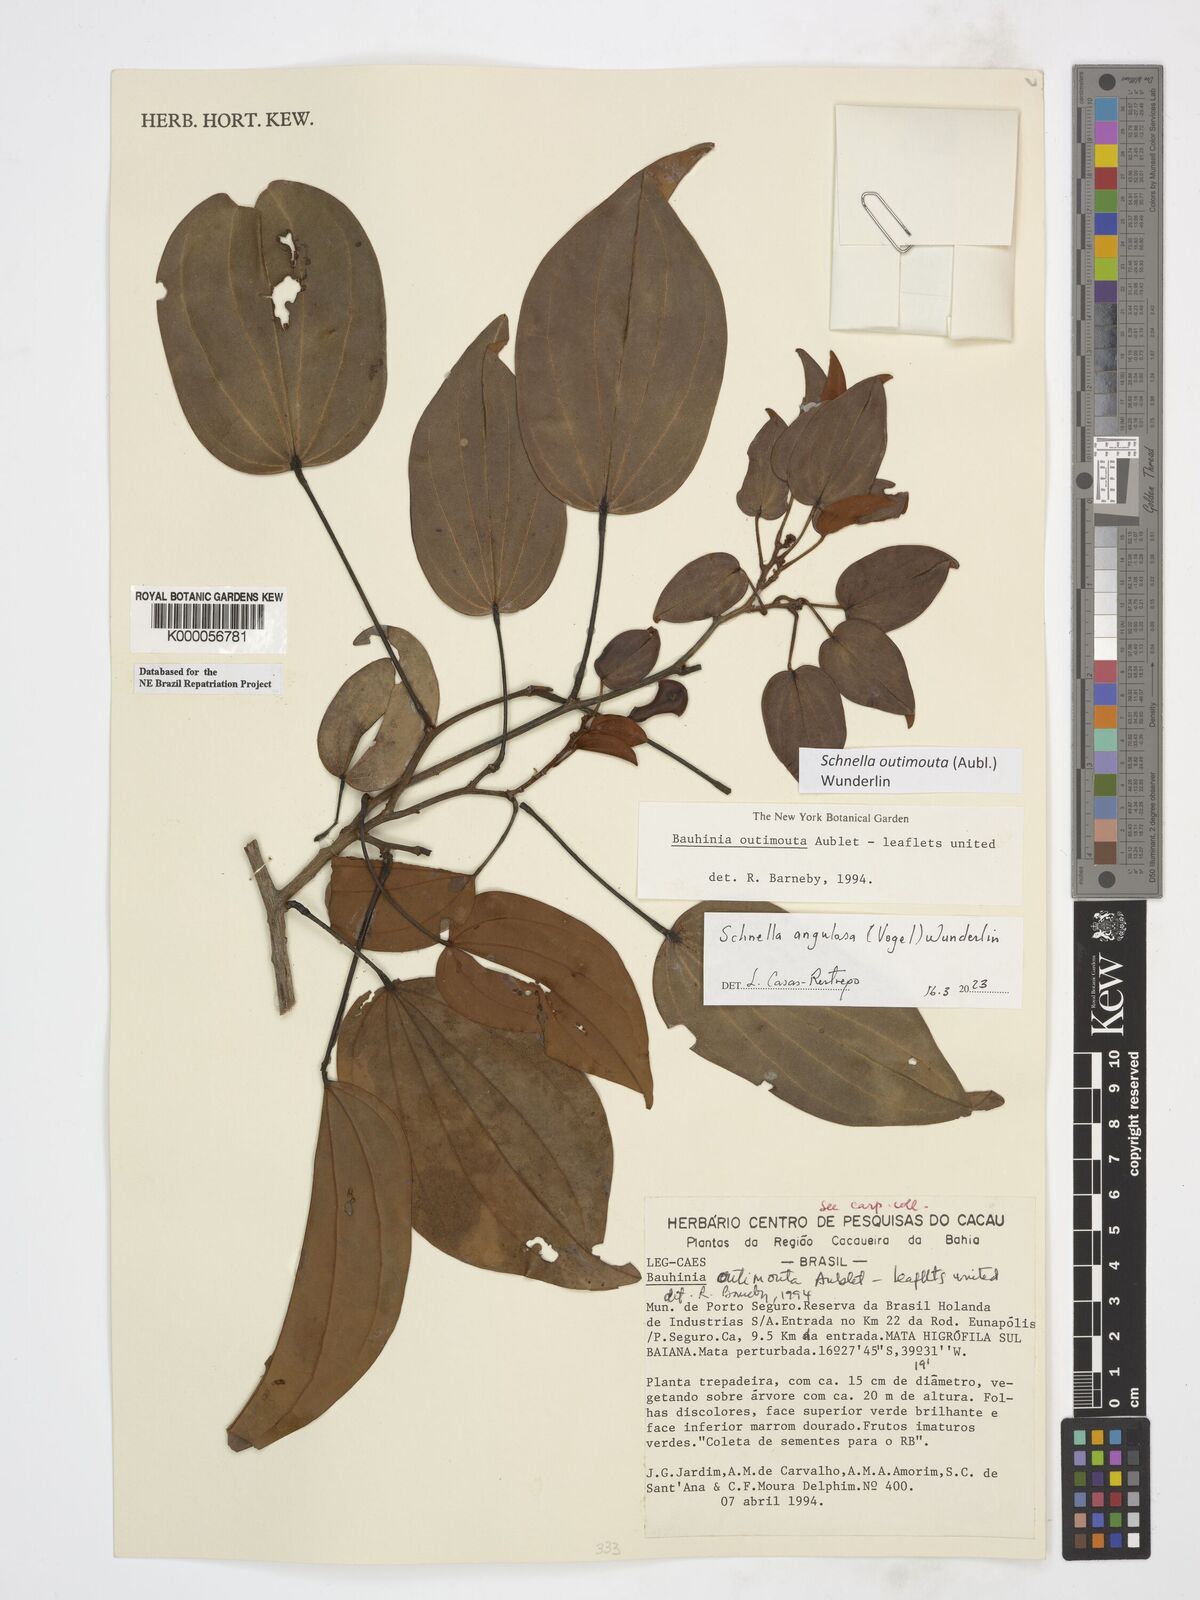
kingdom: Plantae
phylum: Tracheophyta
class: Magnoliopsida
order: Fabales
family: Fabaceae
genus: Schnella
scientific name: Schnella angulosa
